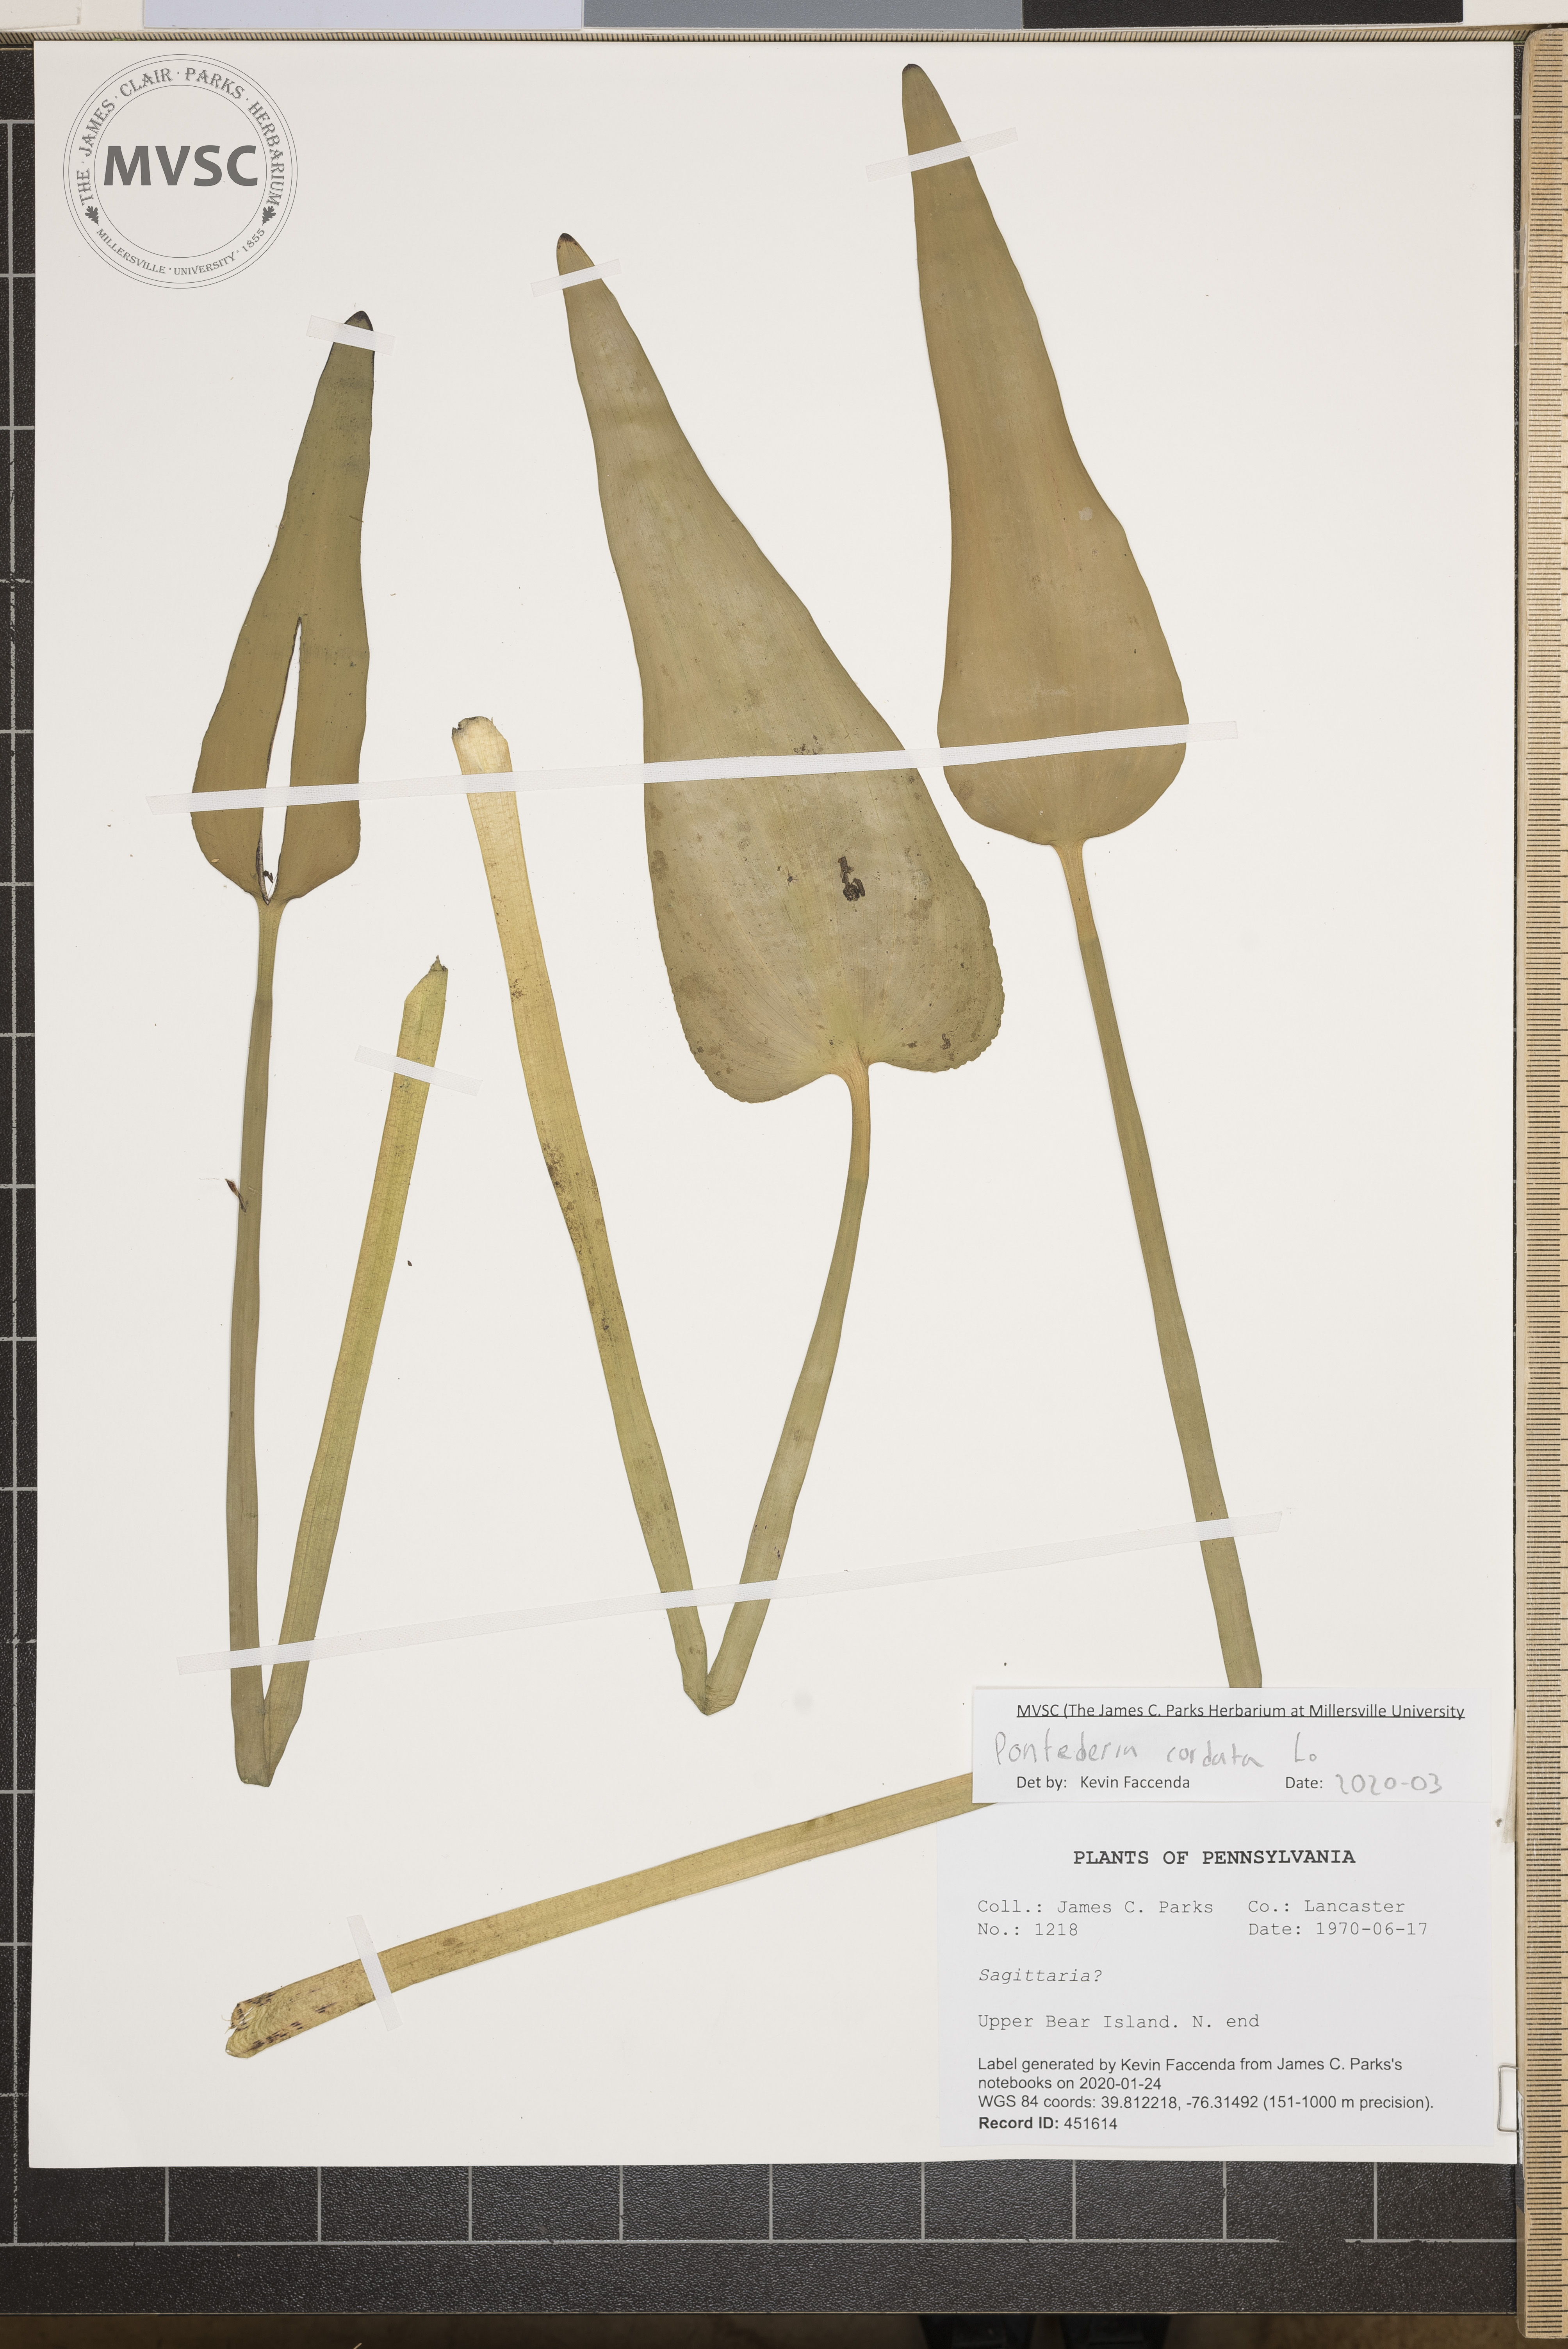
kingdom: Plantae
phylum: Tracheophyta
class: Liliopsida
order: Commelinales
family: Pontederiaceae
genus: Pontederia
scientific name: Pontederia cordata
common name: Pickerelweed
